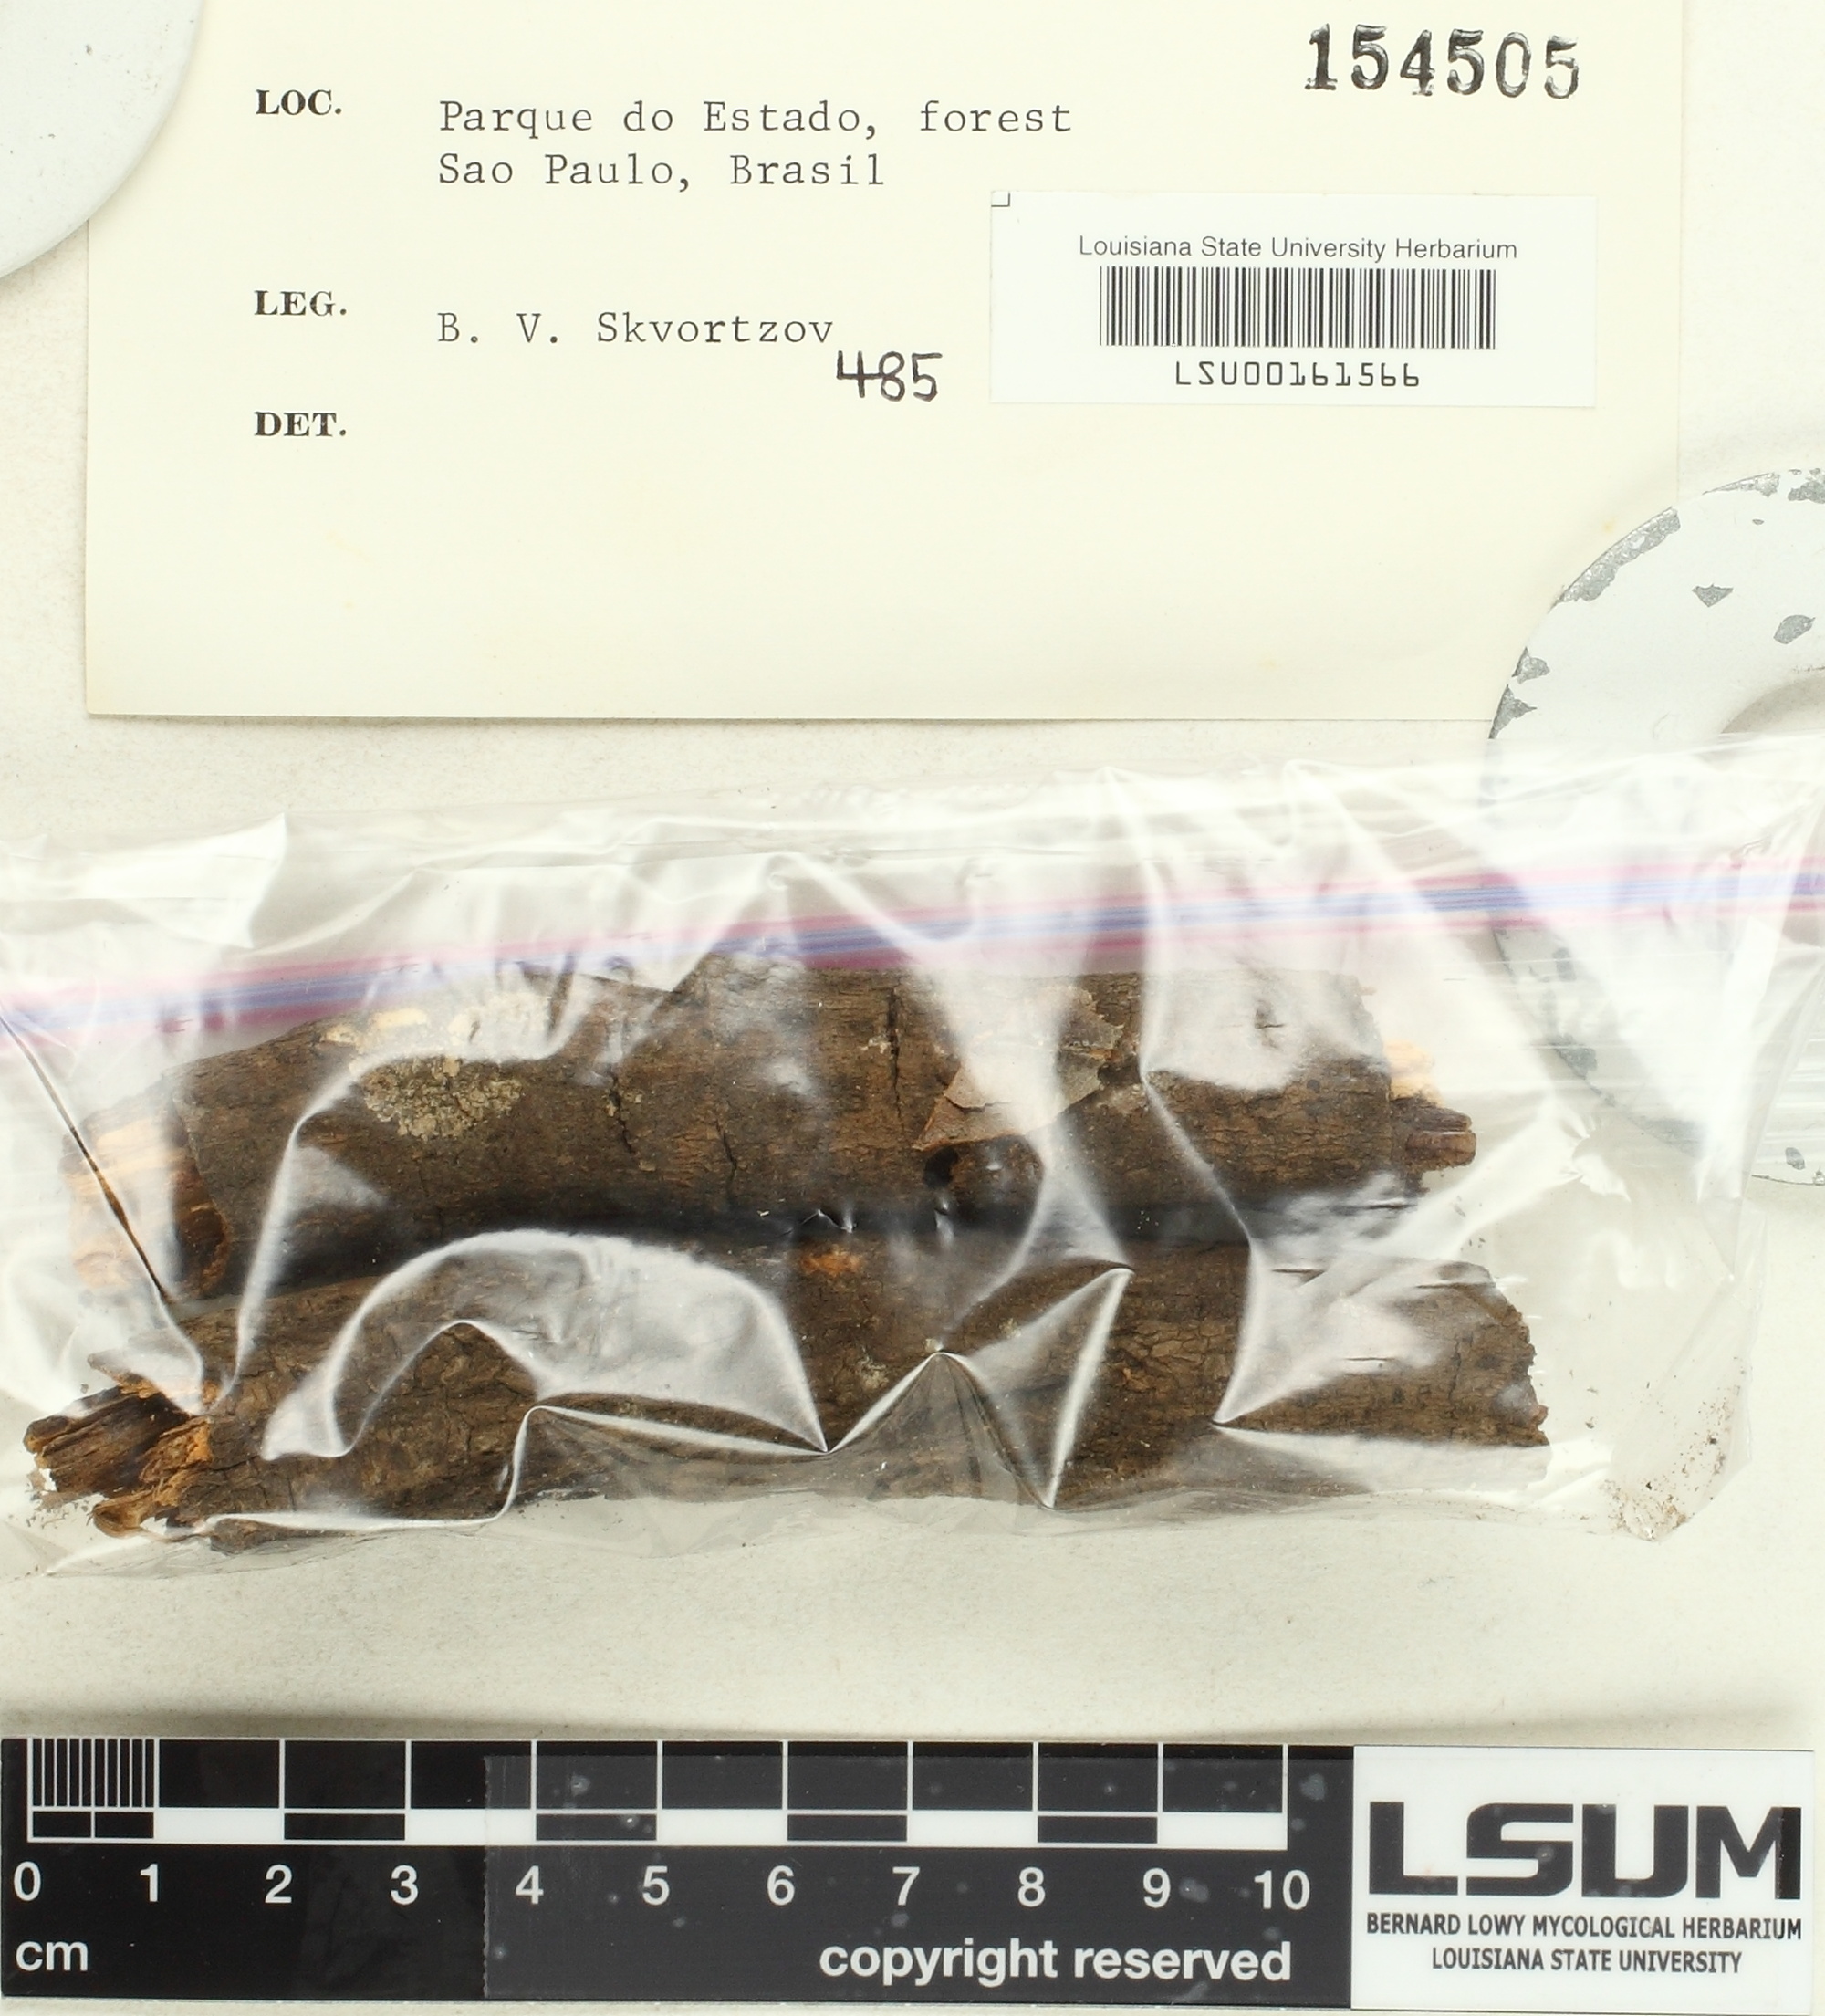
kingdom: Fungi
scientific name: Fungi
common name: Fungi
